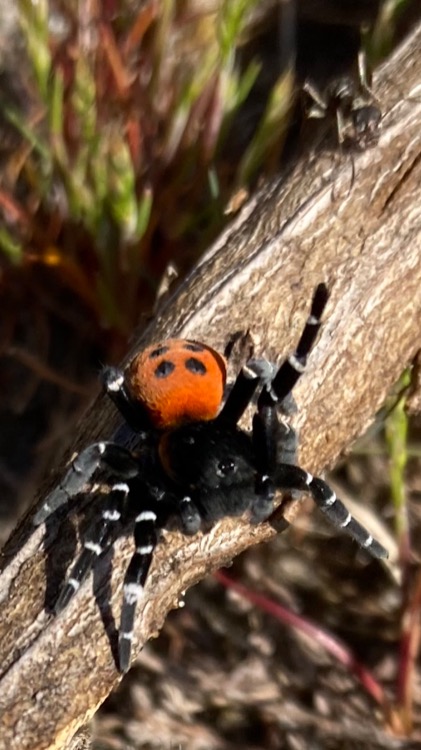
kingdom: Animalia
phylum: Arthropoda
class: Arachnida
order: Araneae
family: Eresidae
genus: Eresus
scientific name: Eresus sandaliatus
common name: Mariehøneedderkop
